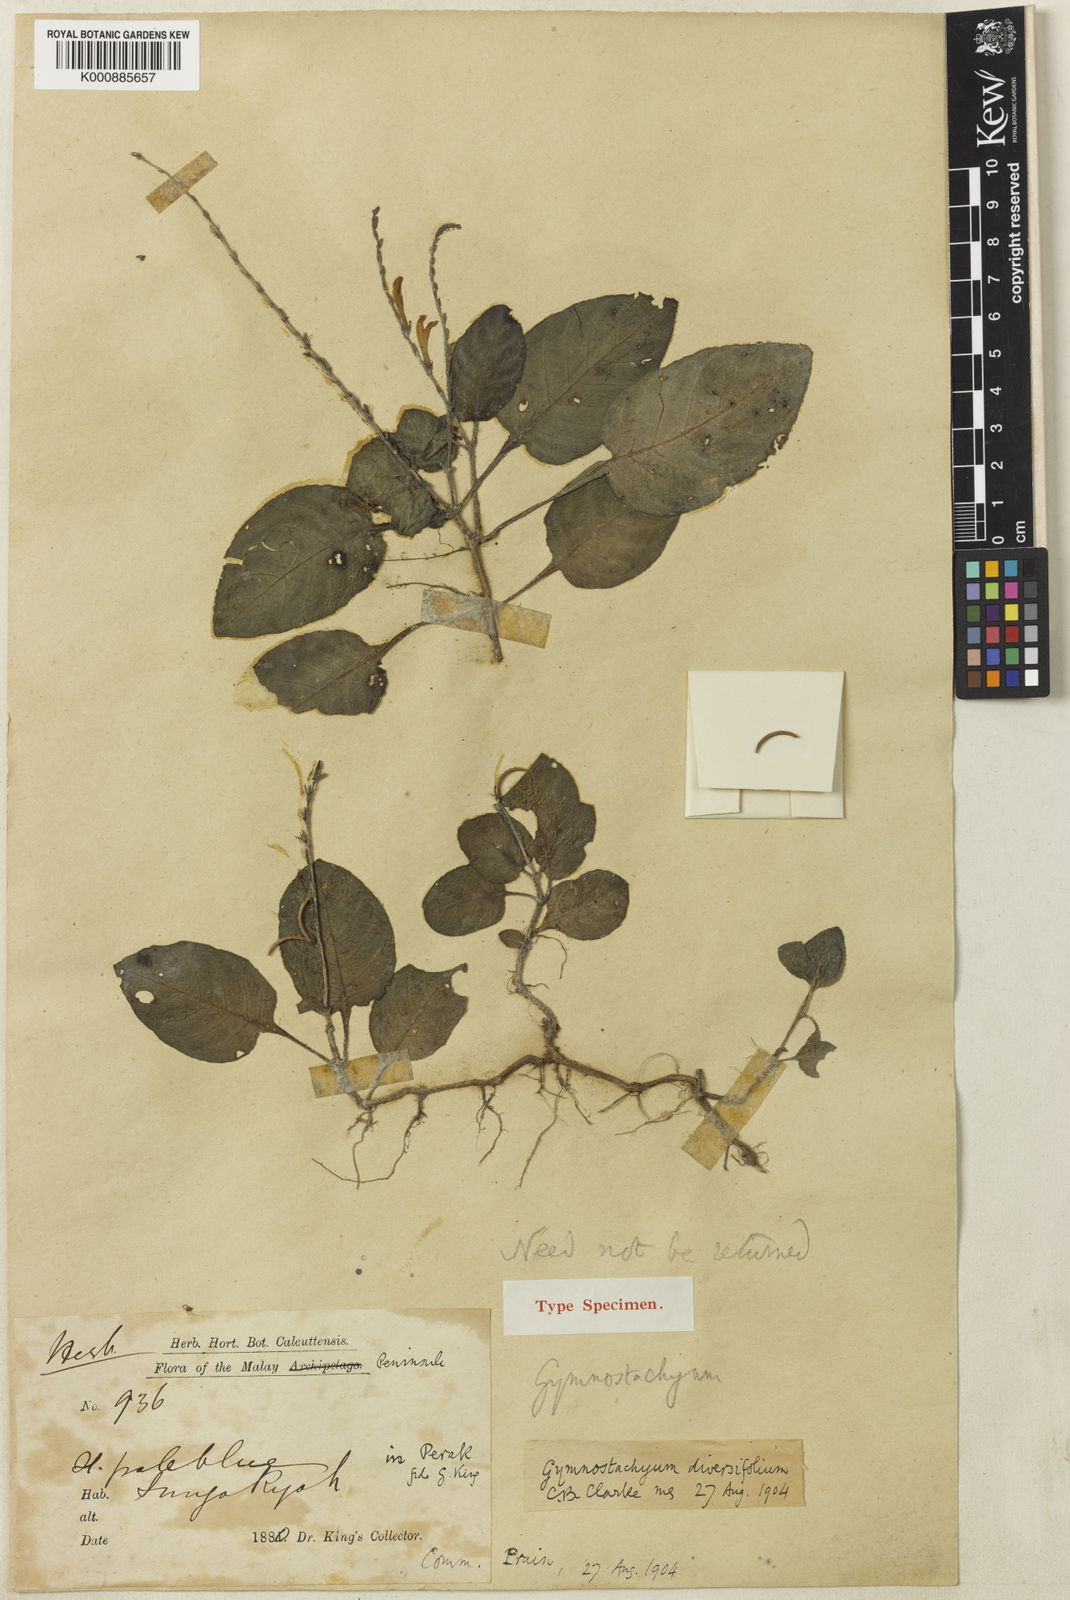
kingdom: Plantae
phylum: Tracheophyta
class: Magnoliopsida
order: Lamiales
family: Acanthaceae
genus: Gymnostachyum
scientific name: Gymnostachyum diversifolium
